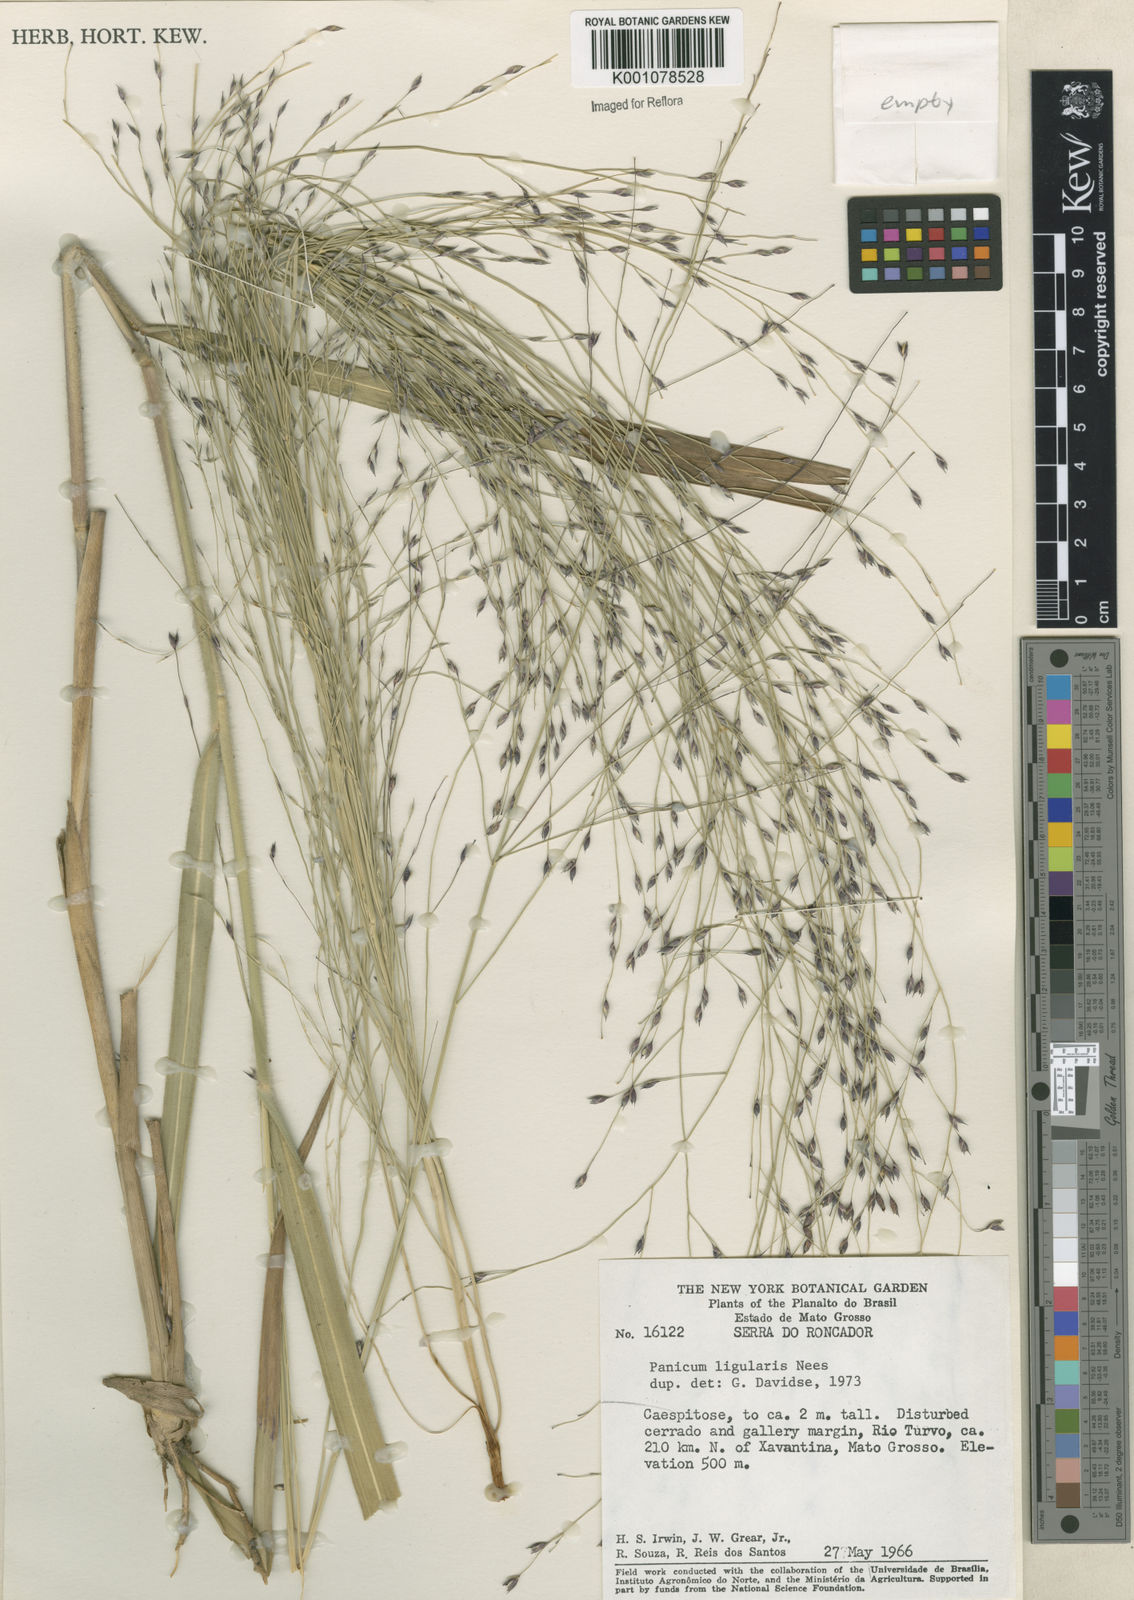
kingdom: Plantae
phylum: Tracheophyta
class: Liliopsida
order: Poales
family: Poaceae
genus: Panicum
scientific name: Panicum ligulare
